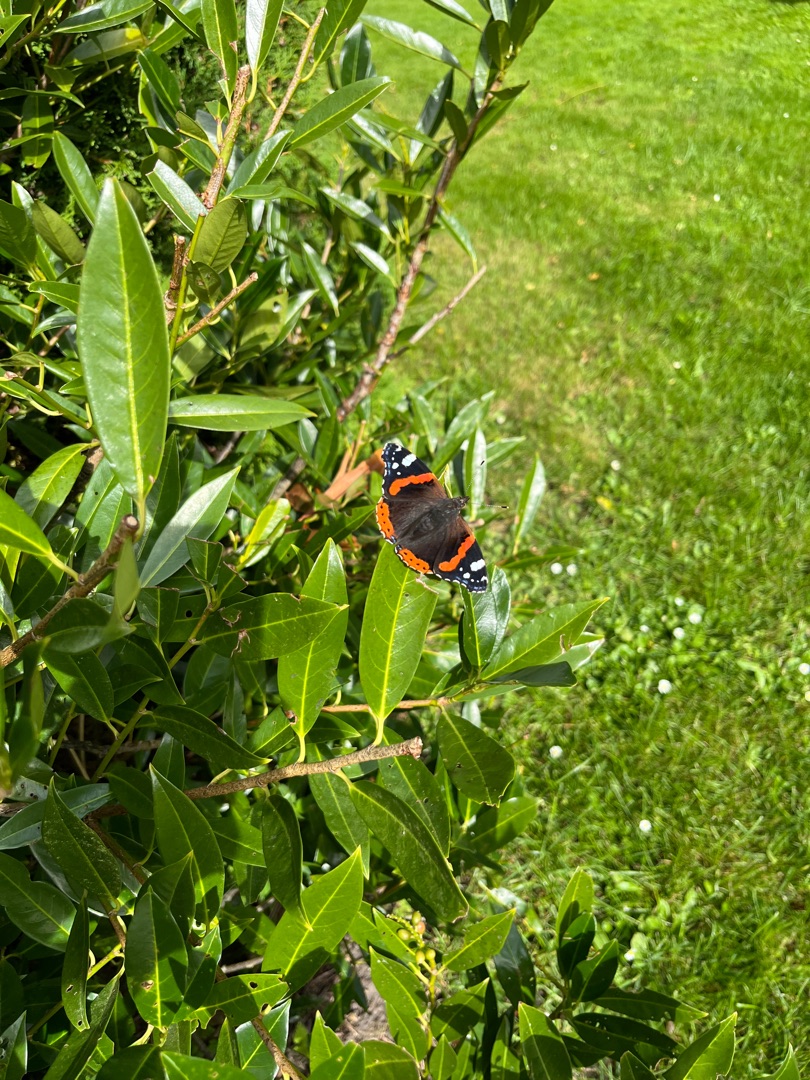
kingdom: Animalia
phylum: Arthropoda
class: Insecta
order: Lepidoptera
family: Nymphalidae
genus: Vanessa
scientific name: Vanessa atalanta
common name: Admiral
